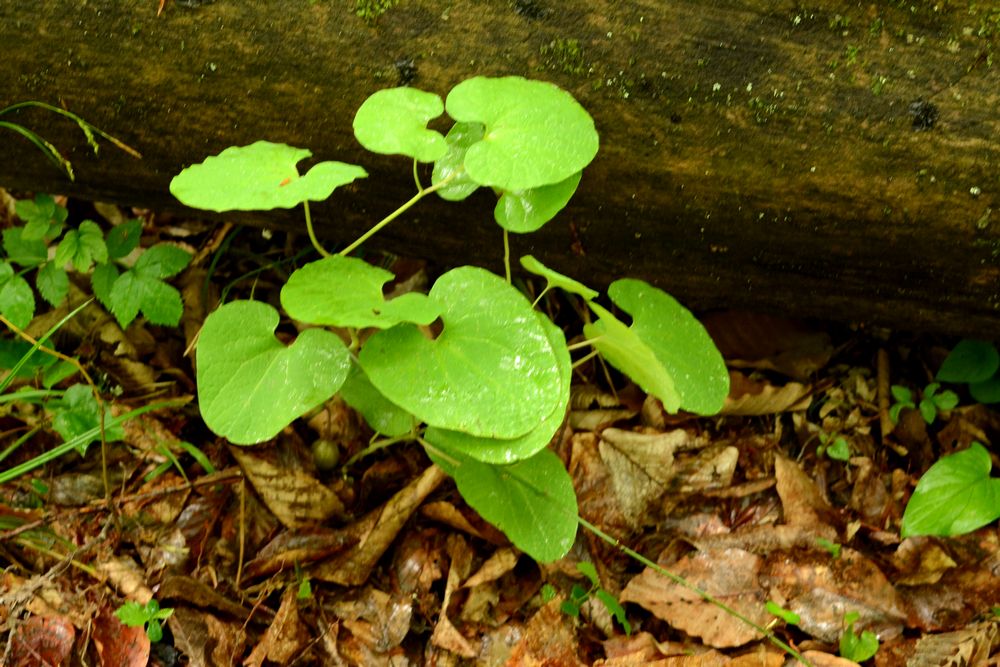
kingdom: Plantae
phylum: Tracheophyta
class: Magnoliopsida
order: Piperales
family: Aristolochiaceae
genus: Aristolochia
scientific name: Aristolochia steupii
